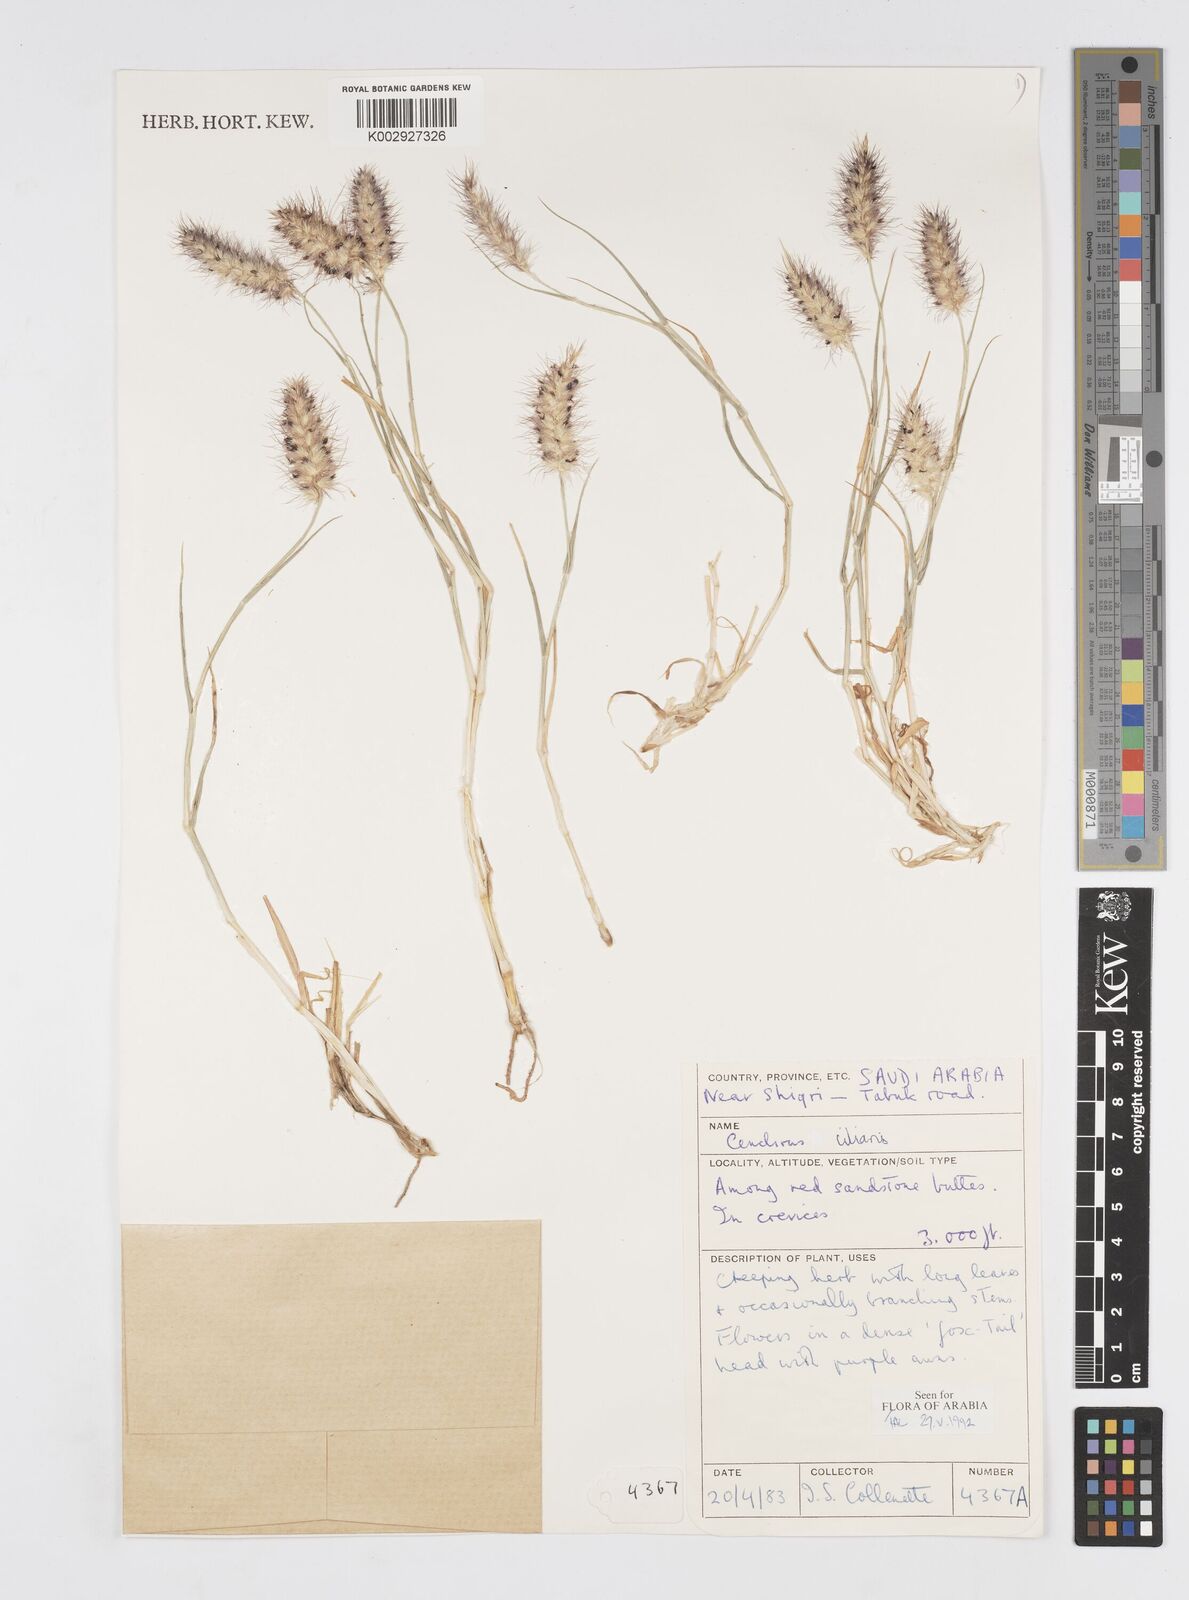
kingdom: Plantae
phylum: Tracheophyta
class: Liliopsida
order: Poales
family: Poaceae
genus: Cenchrus
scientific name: Cenchrus ciliaris
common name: Buffelgrass
